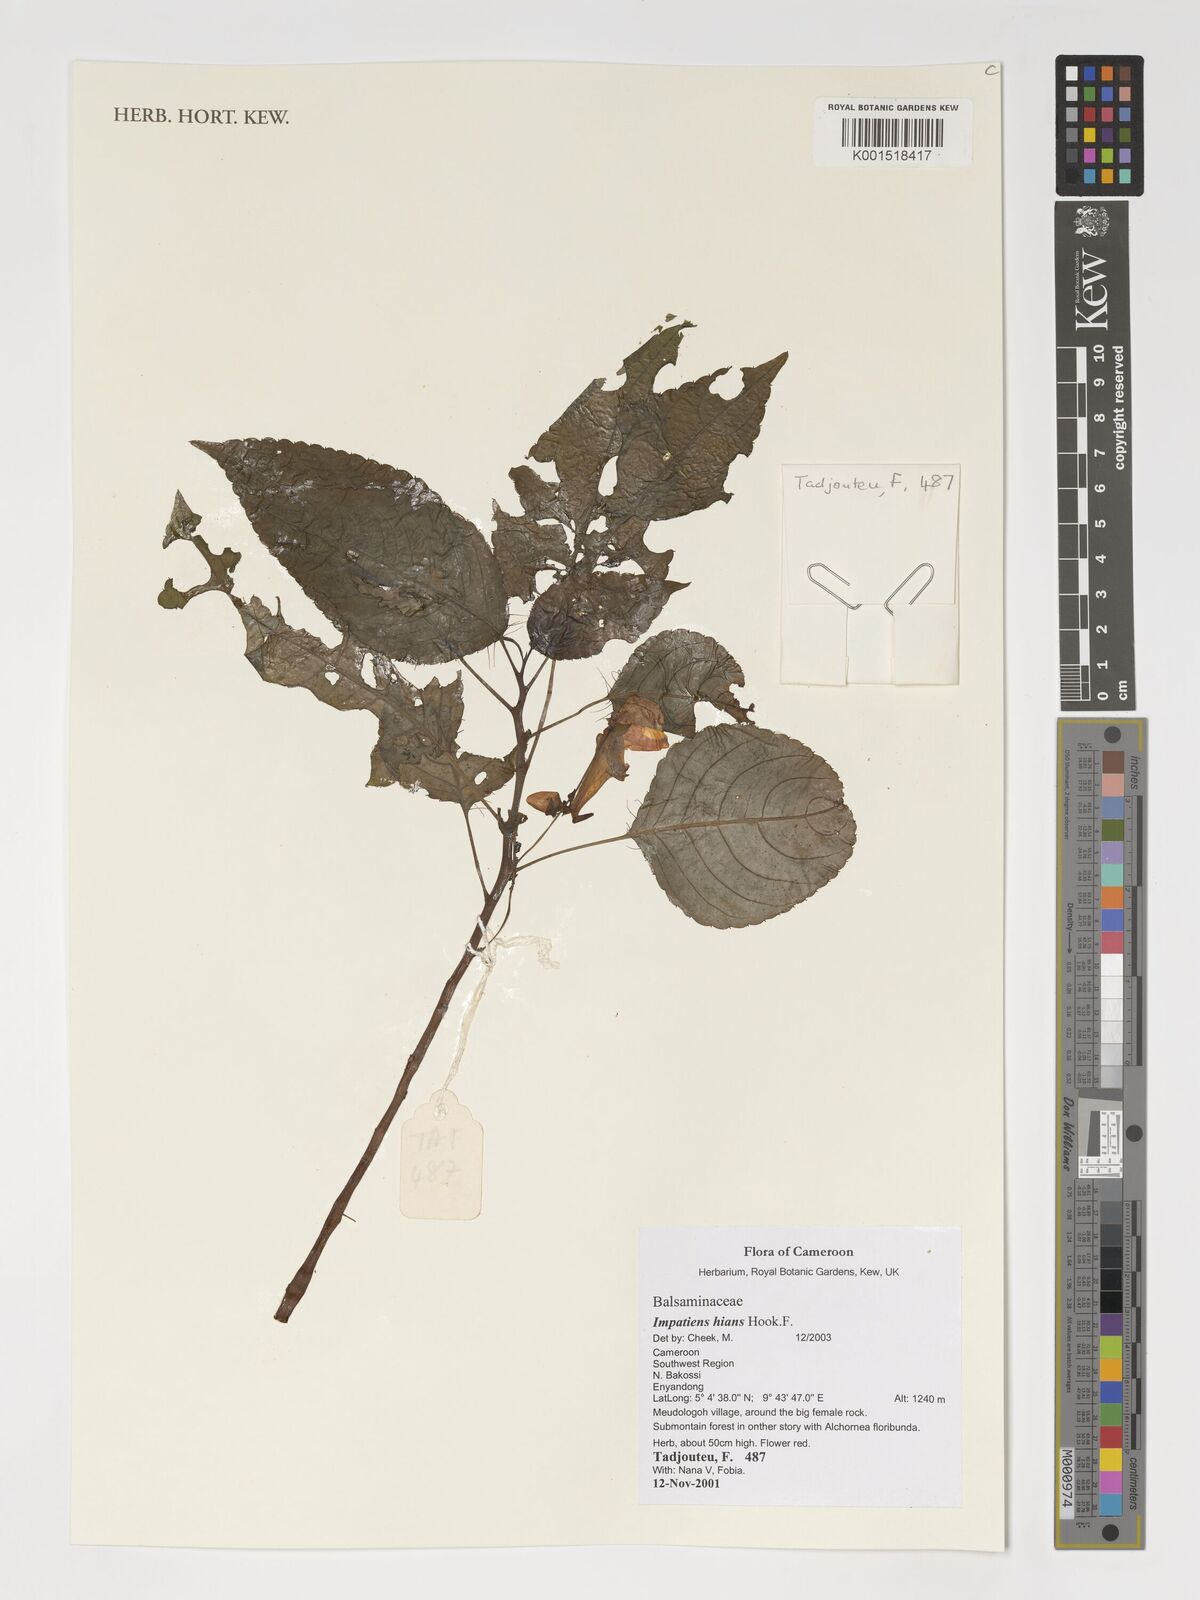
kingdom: Plantae
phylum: Tracheophyta
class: Magnoliopsida
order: Ericales
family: Balsaminaceae
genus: Impatiens
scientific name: Impatiens hians
